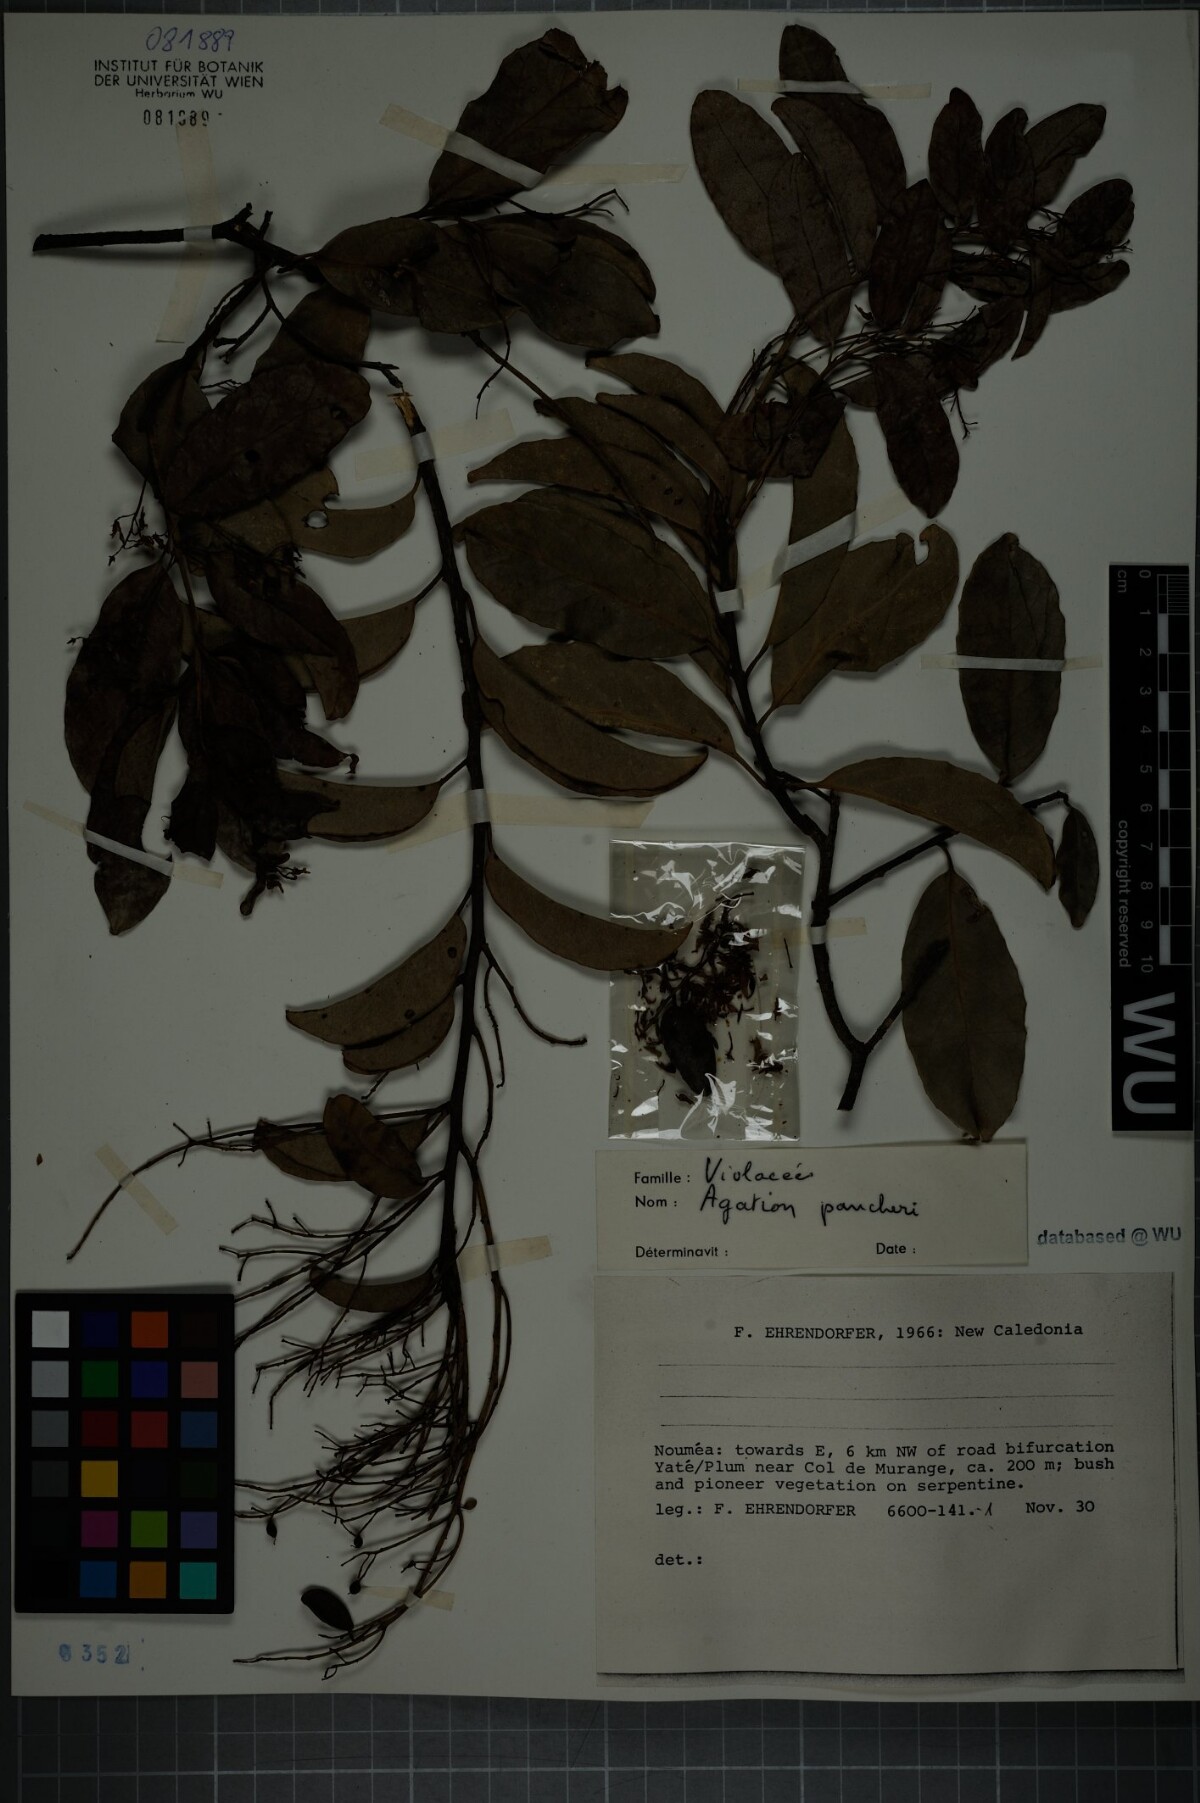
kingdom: Plantae
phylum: Tracheophyta
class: Magnoliopsida
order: Malpighiales
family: Violaceae
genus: Agatea
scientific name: Agatea pancheri
